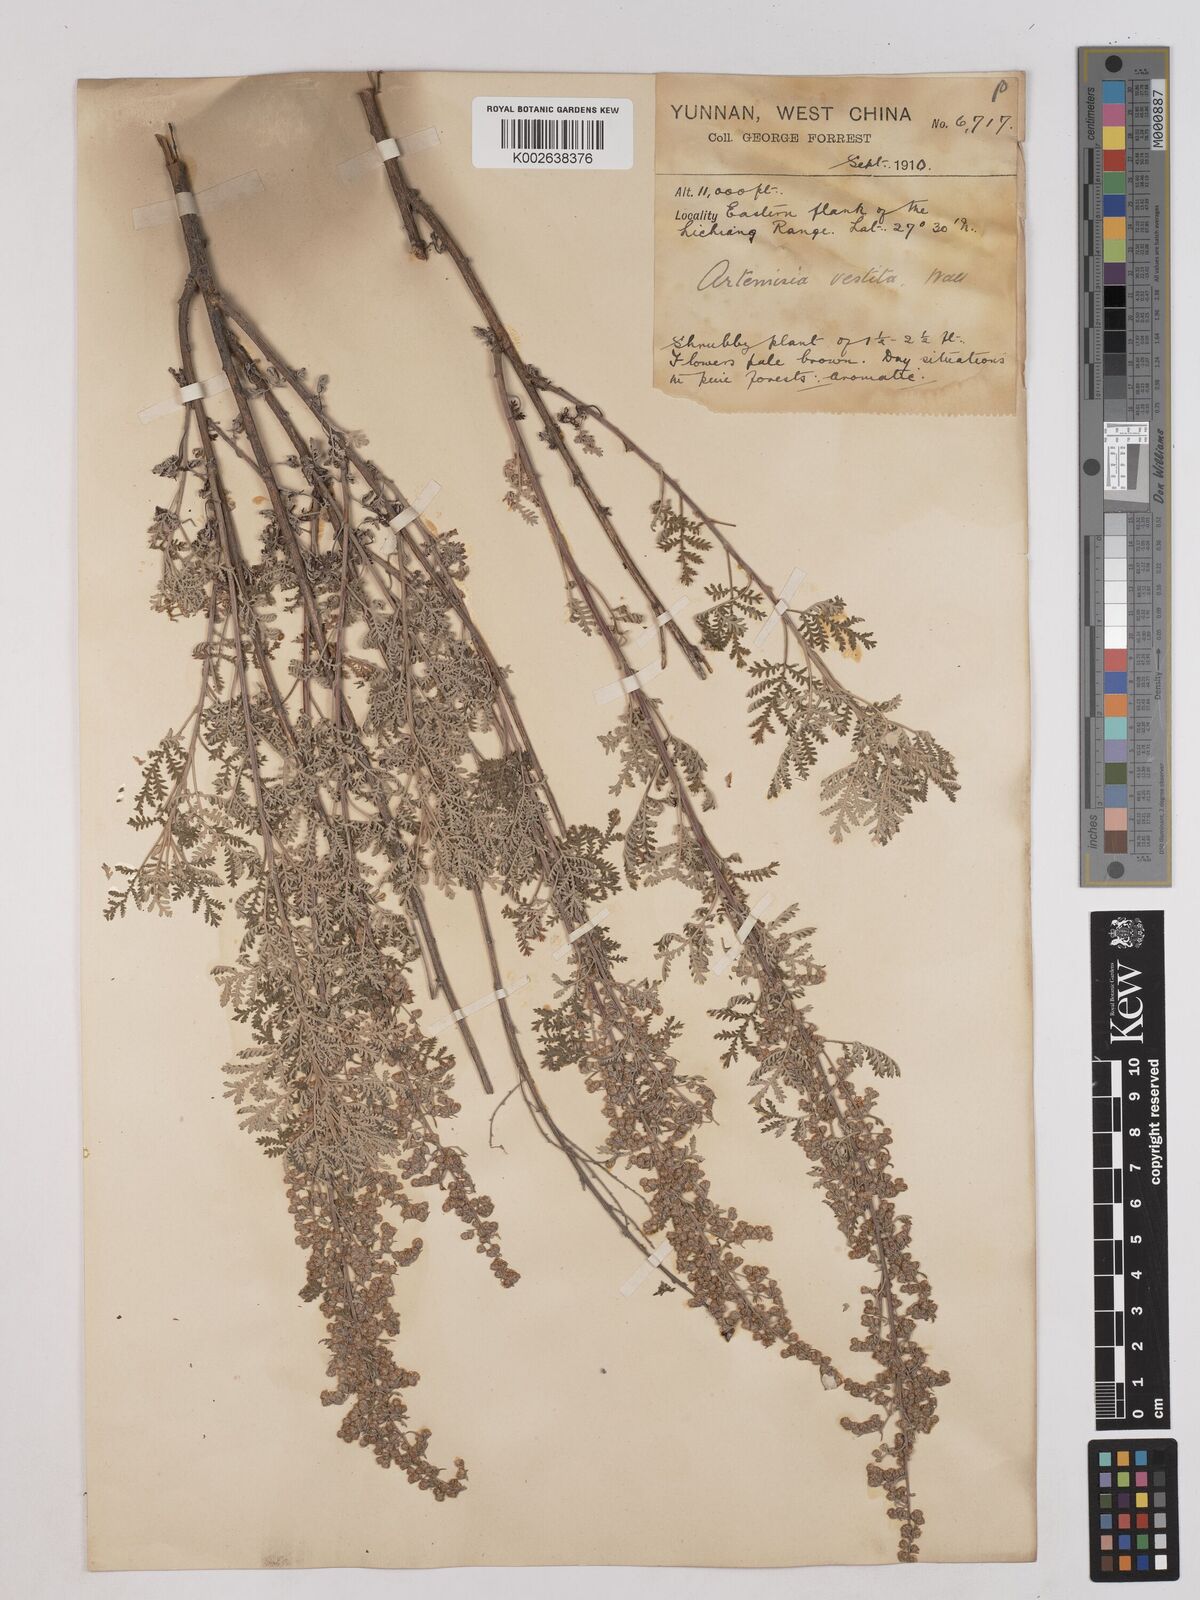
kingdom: Plantae
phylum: Tracheophyta
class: Magnoliopsida
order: Asterales
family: Asteraceae
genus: Artemisia
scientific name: Artemisia gmelinii
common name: Gmelin's wormwood
